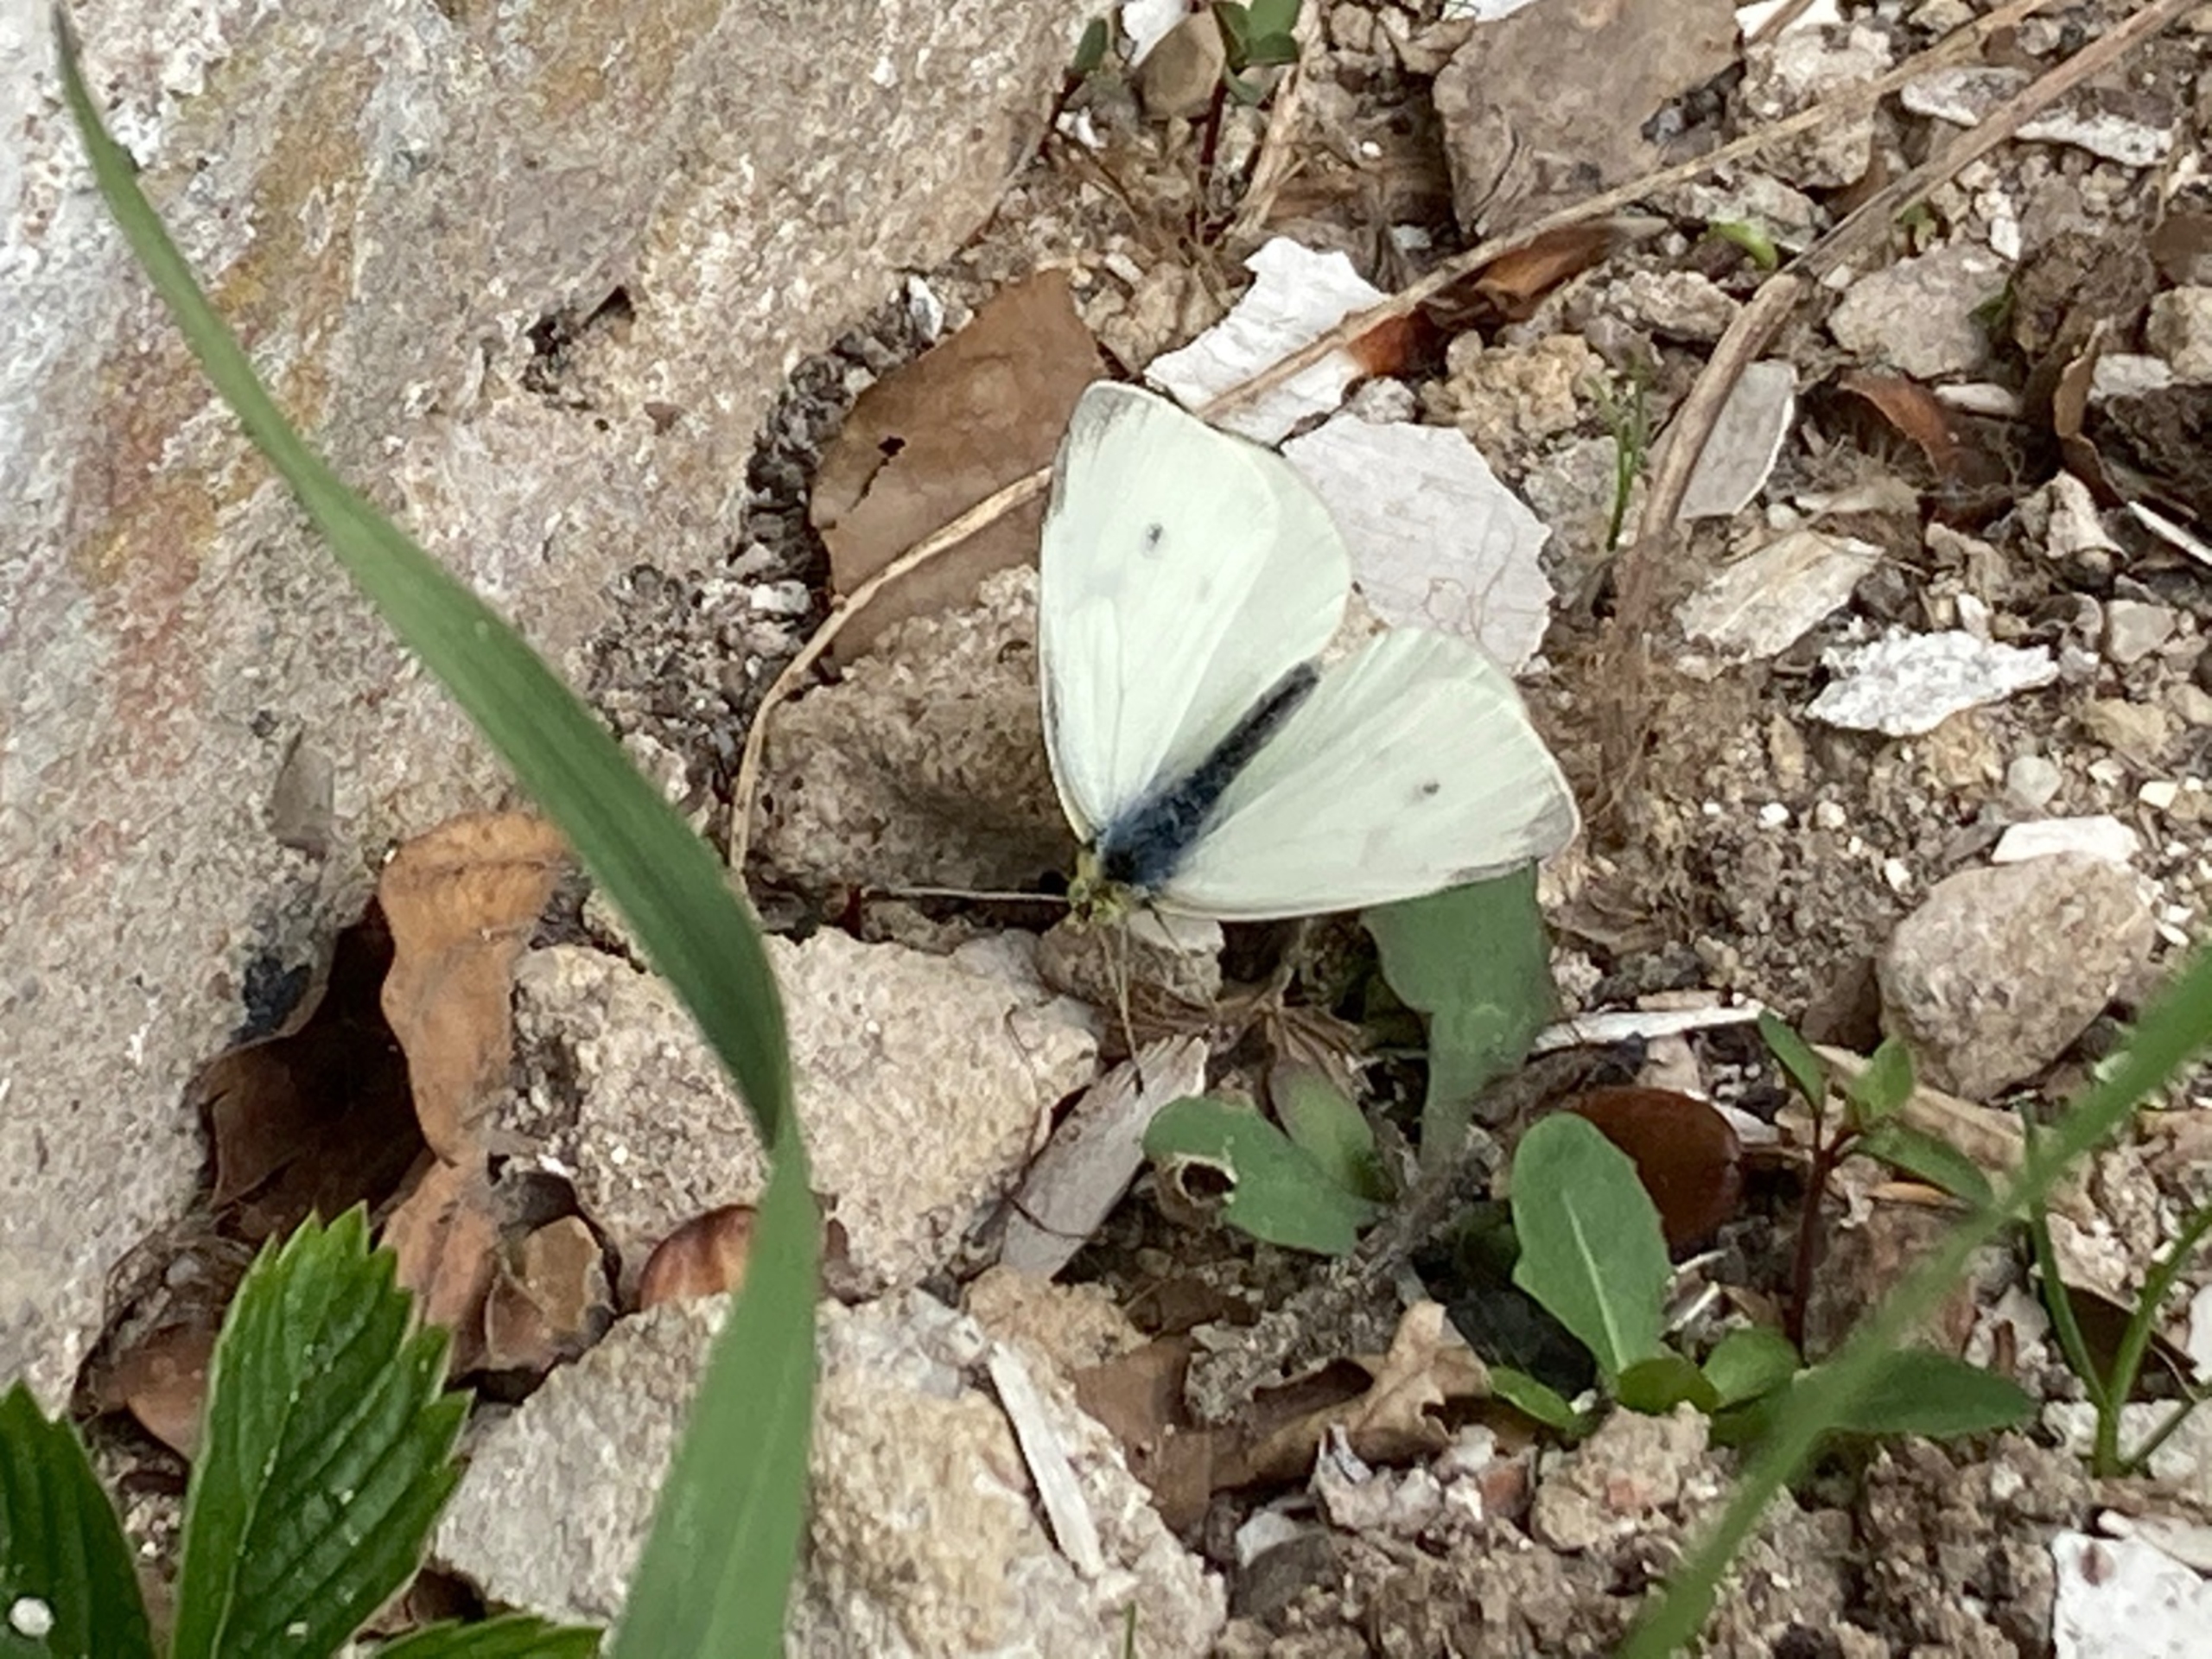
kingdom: Animalia
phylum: Arthropoda
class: Insecta
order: Lepidoptera
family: Pieridae
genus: Pieris
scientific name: Pieris rapae
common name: Lille kålsommerfugl
